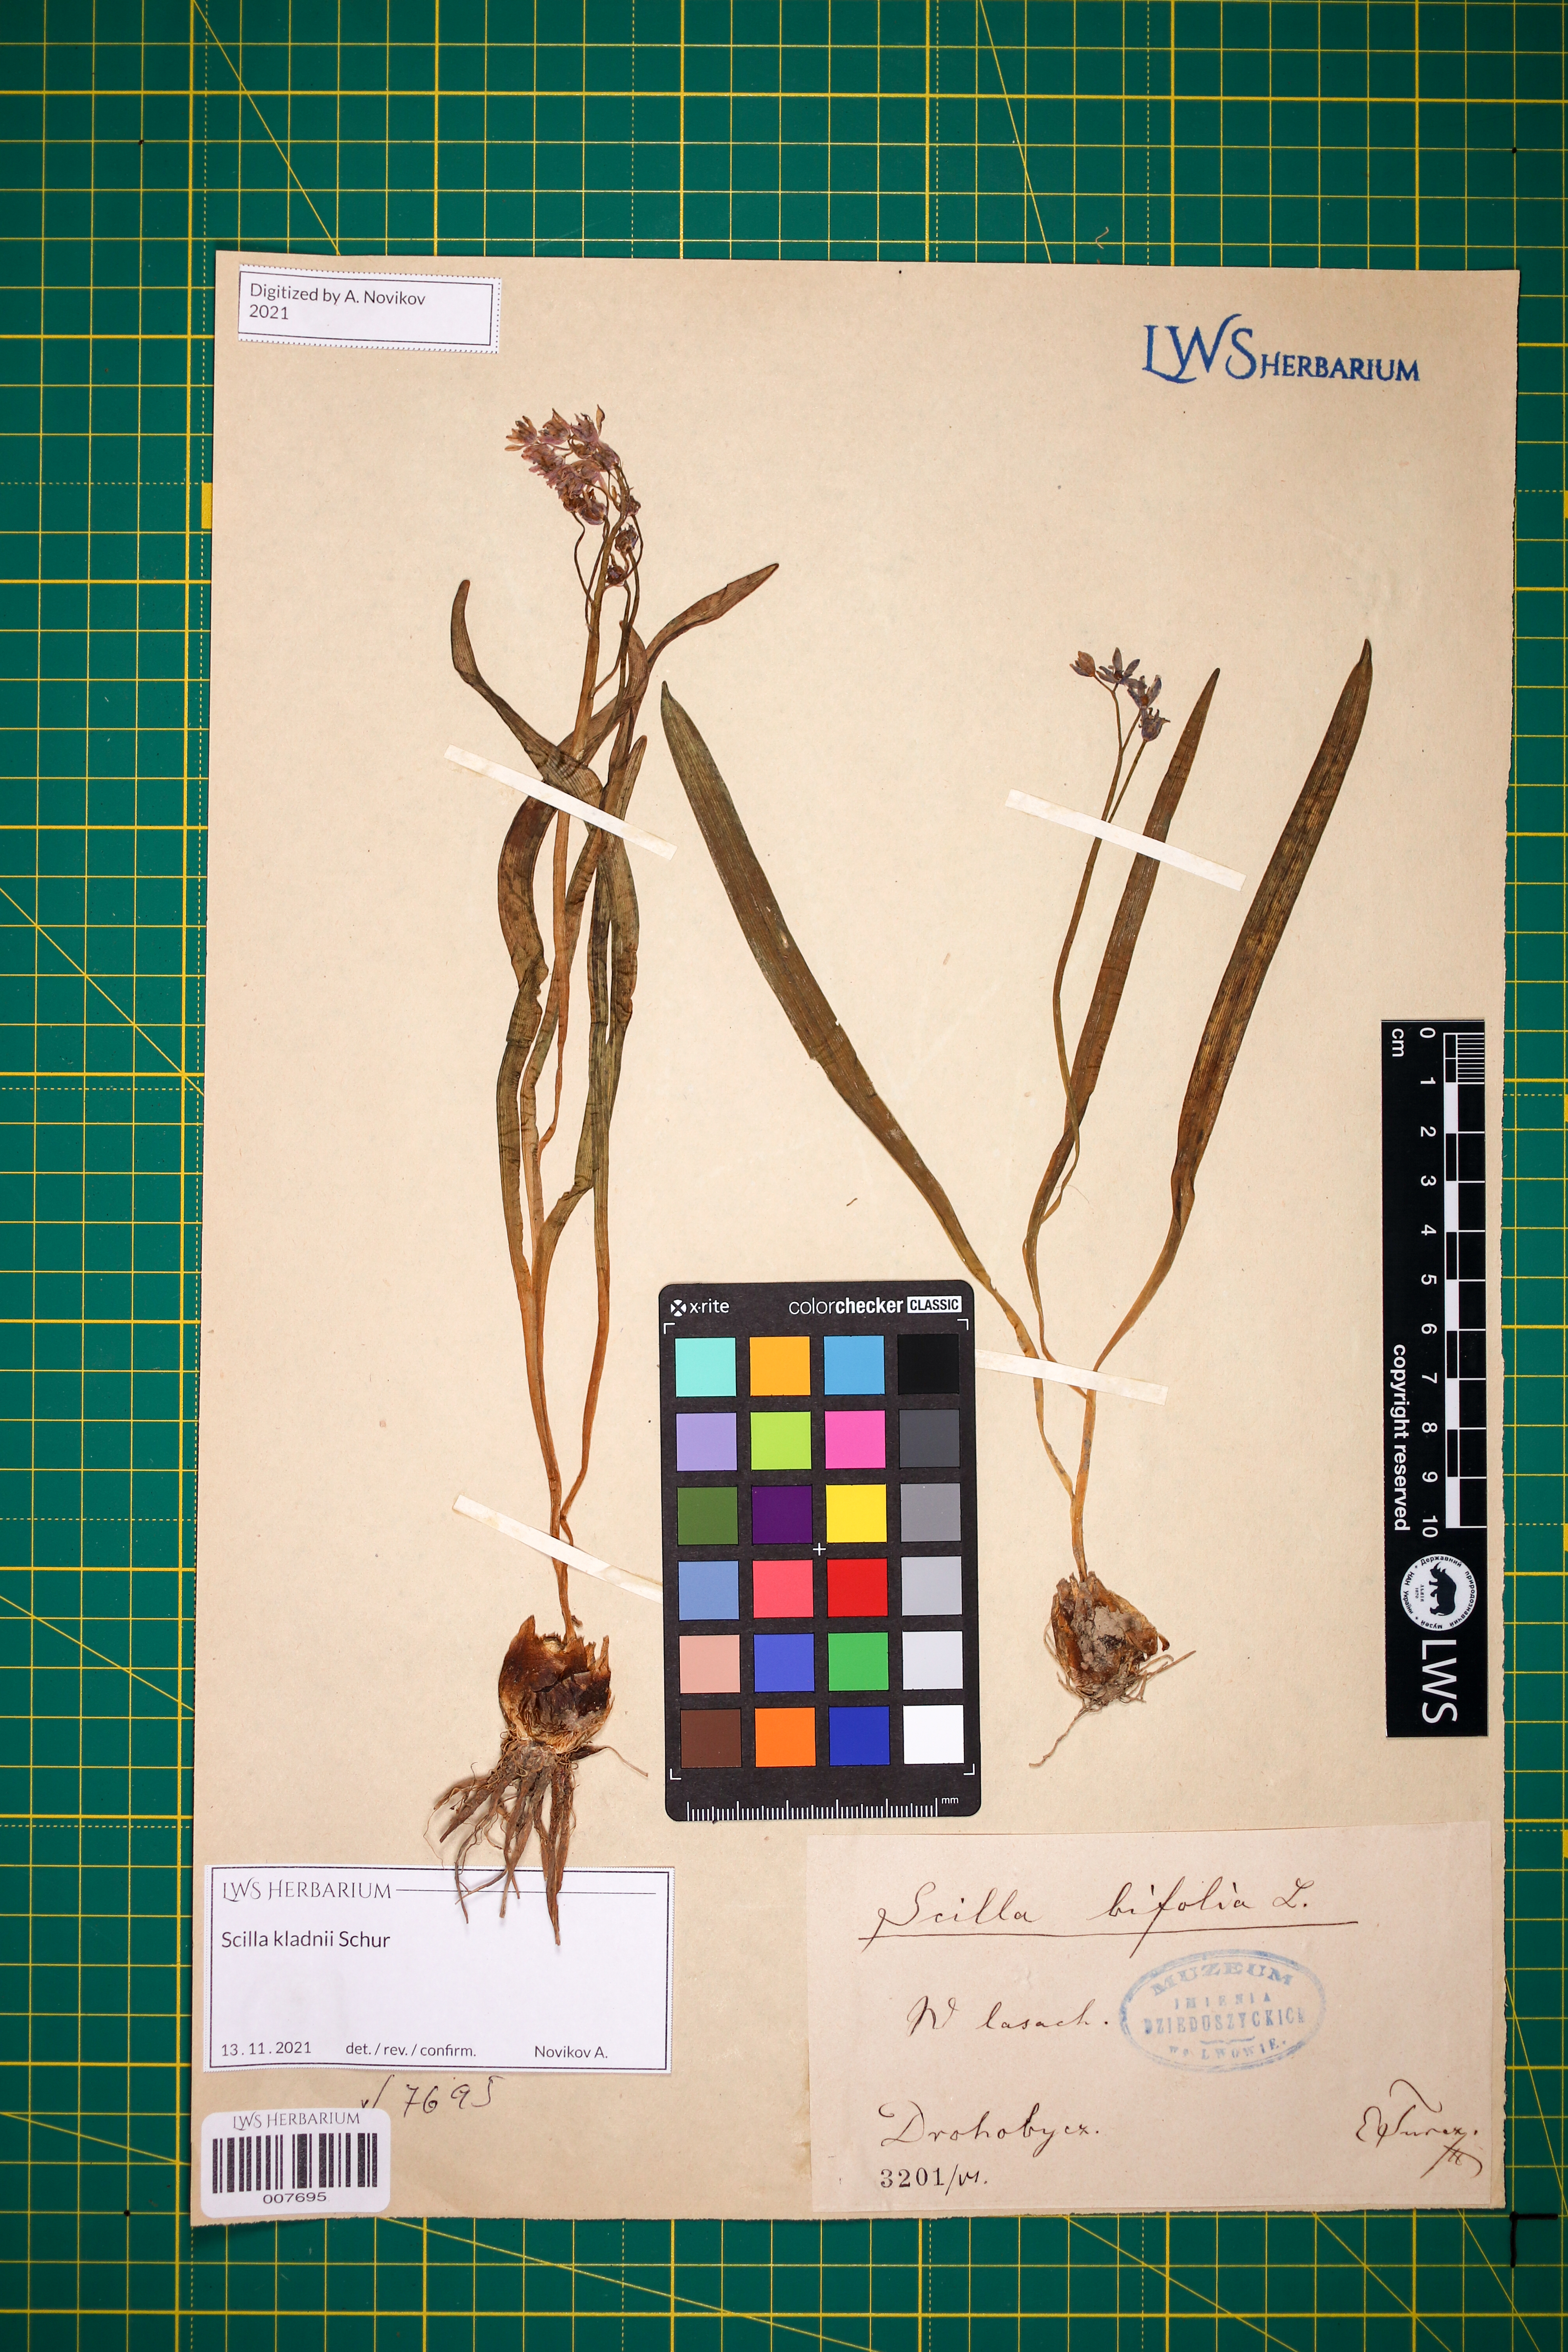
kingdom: Plantae
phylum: Tracheophyta
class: Liliopsida
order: Asparagales
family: Asparagaceae
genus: Scilla
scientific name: Scilla kladnii
